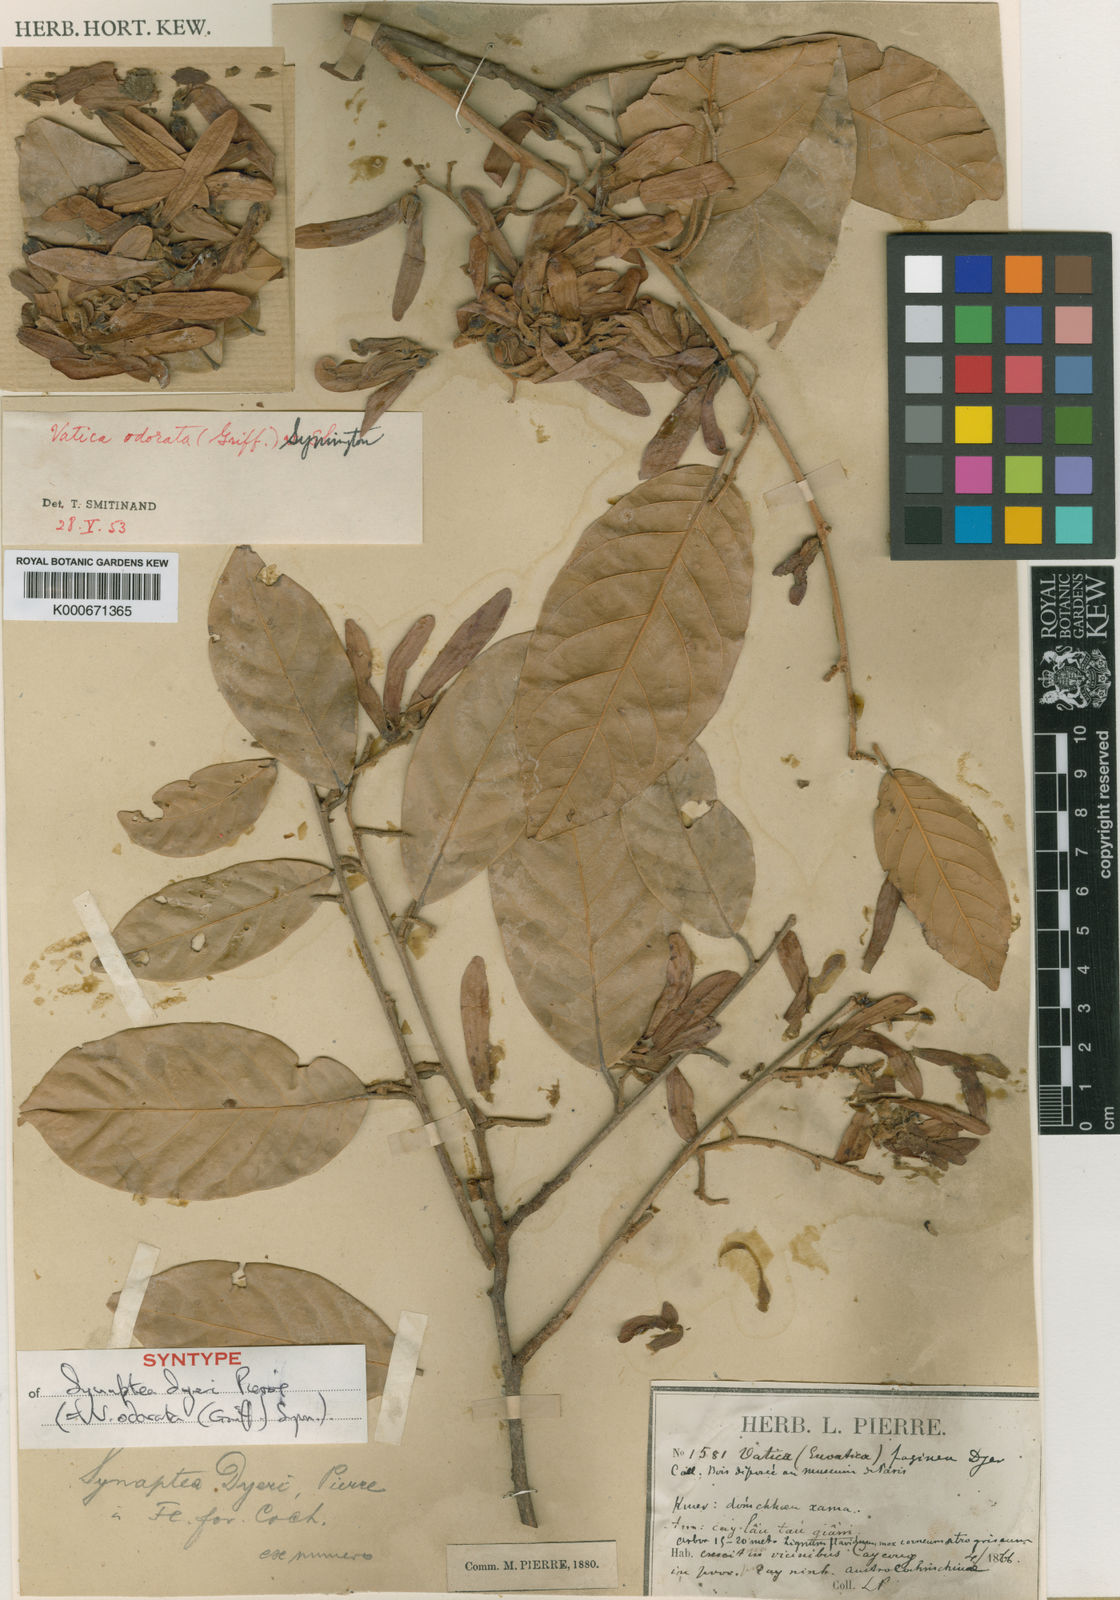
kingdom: Plantae
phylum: Tracheophyta
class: Magnoliopsida
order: Malvales
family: Dipterocarpaceae
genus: Vatica
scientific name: Vatica odorata
